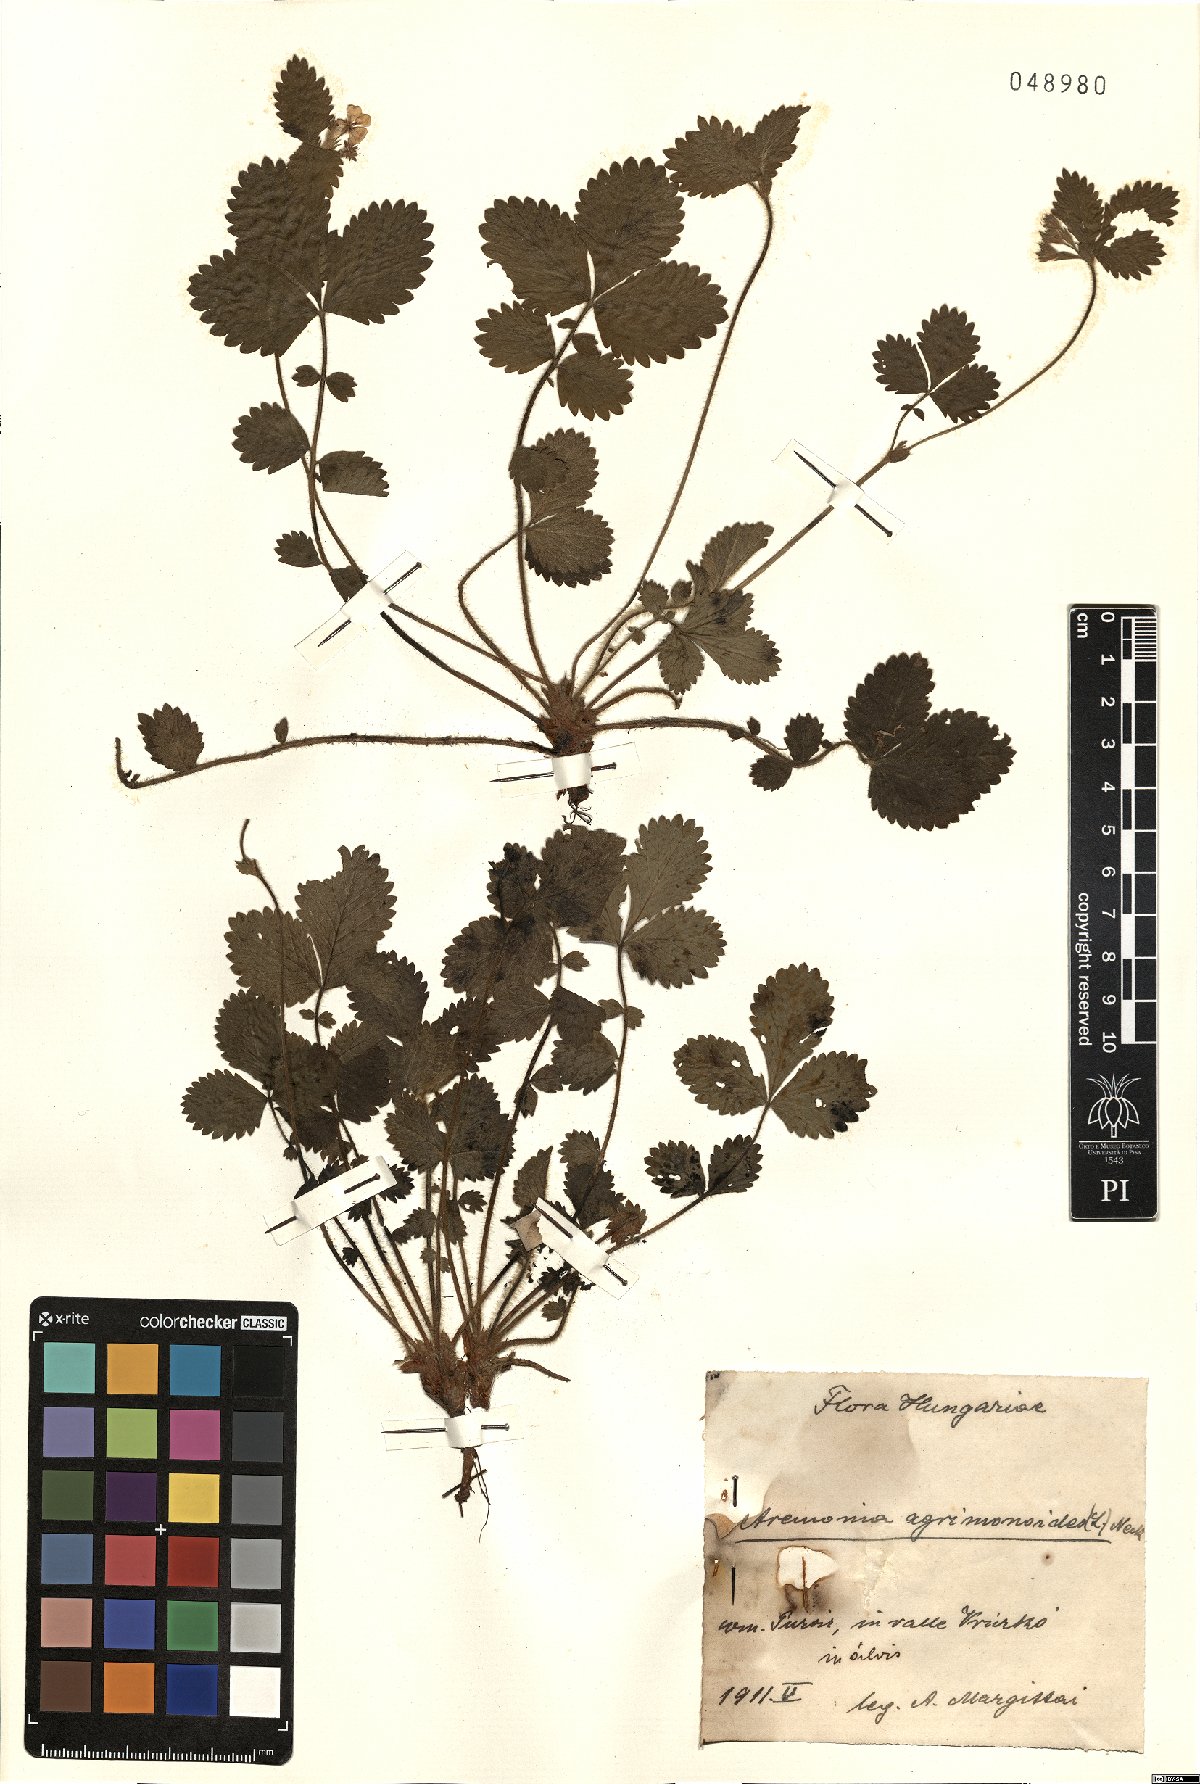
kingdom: Plantae
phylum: Tracheophyta
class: Magnoliopsida
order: Rosales
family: Rosaceae
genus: Aremonia
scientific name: Aremonia agrimonoides
